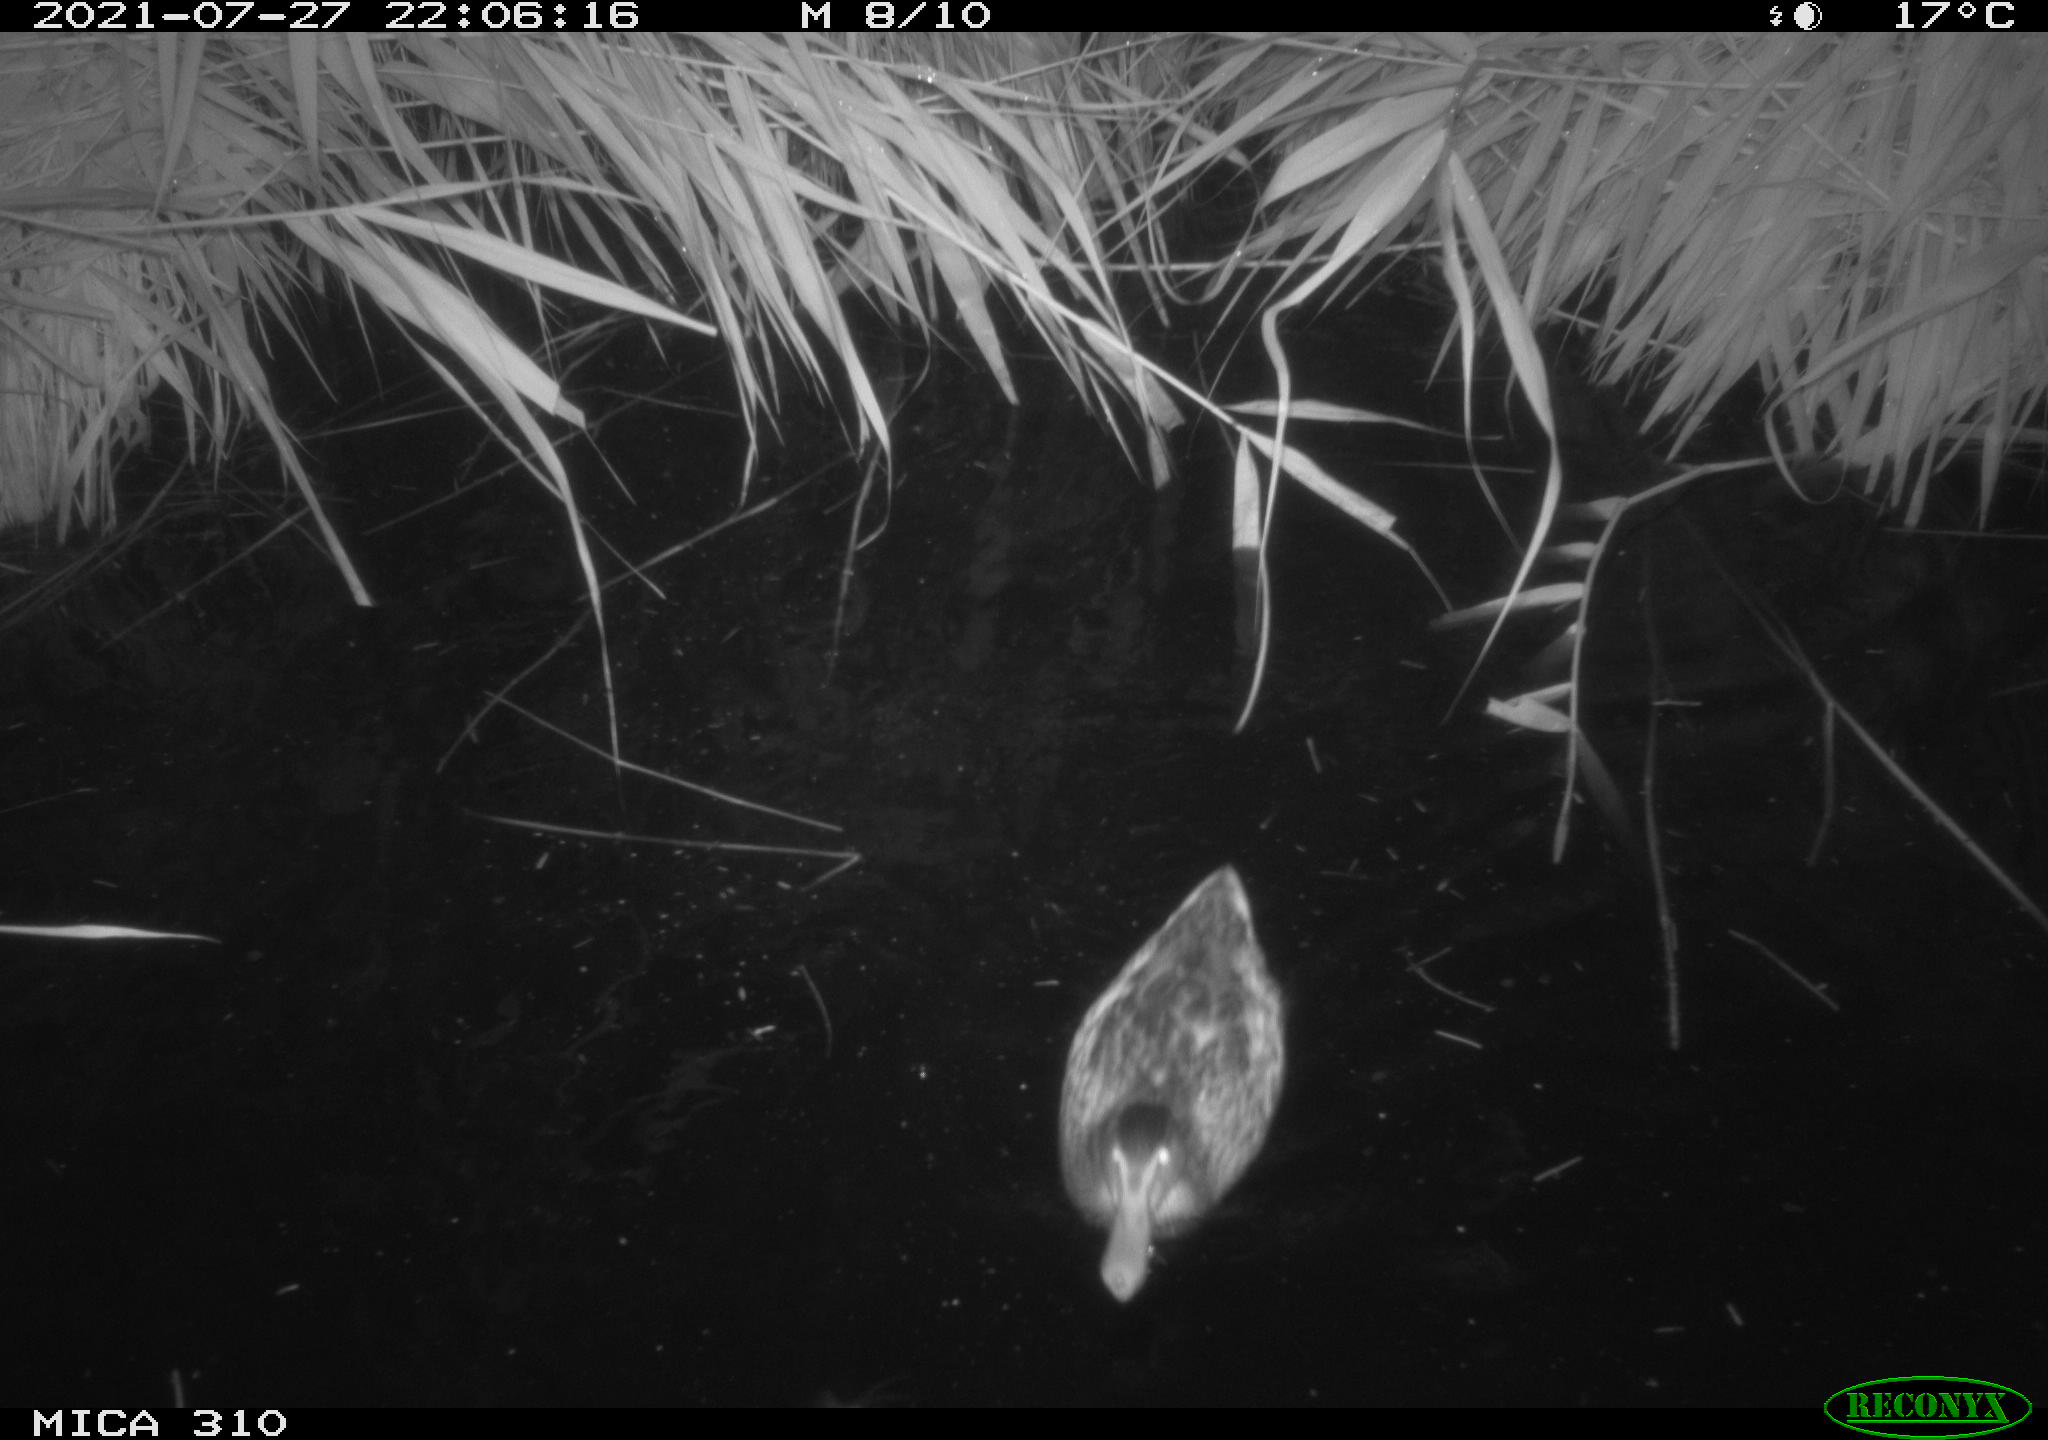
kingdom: Animalia
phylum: Chordata
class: Aves
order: Anseriformes
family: Anatidae
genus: Anas
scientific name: Anas platyrhynchos
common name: Mallard
